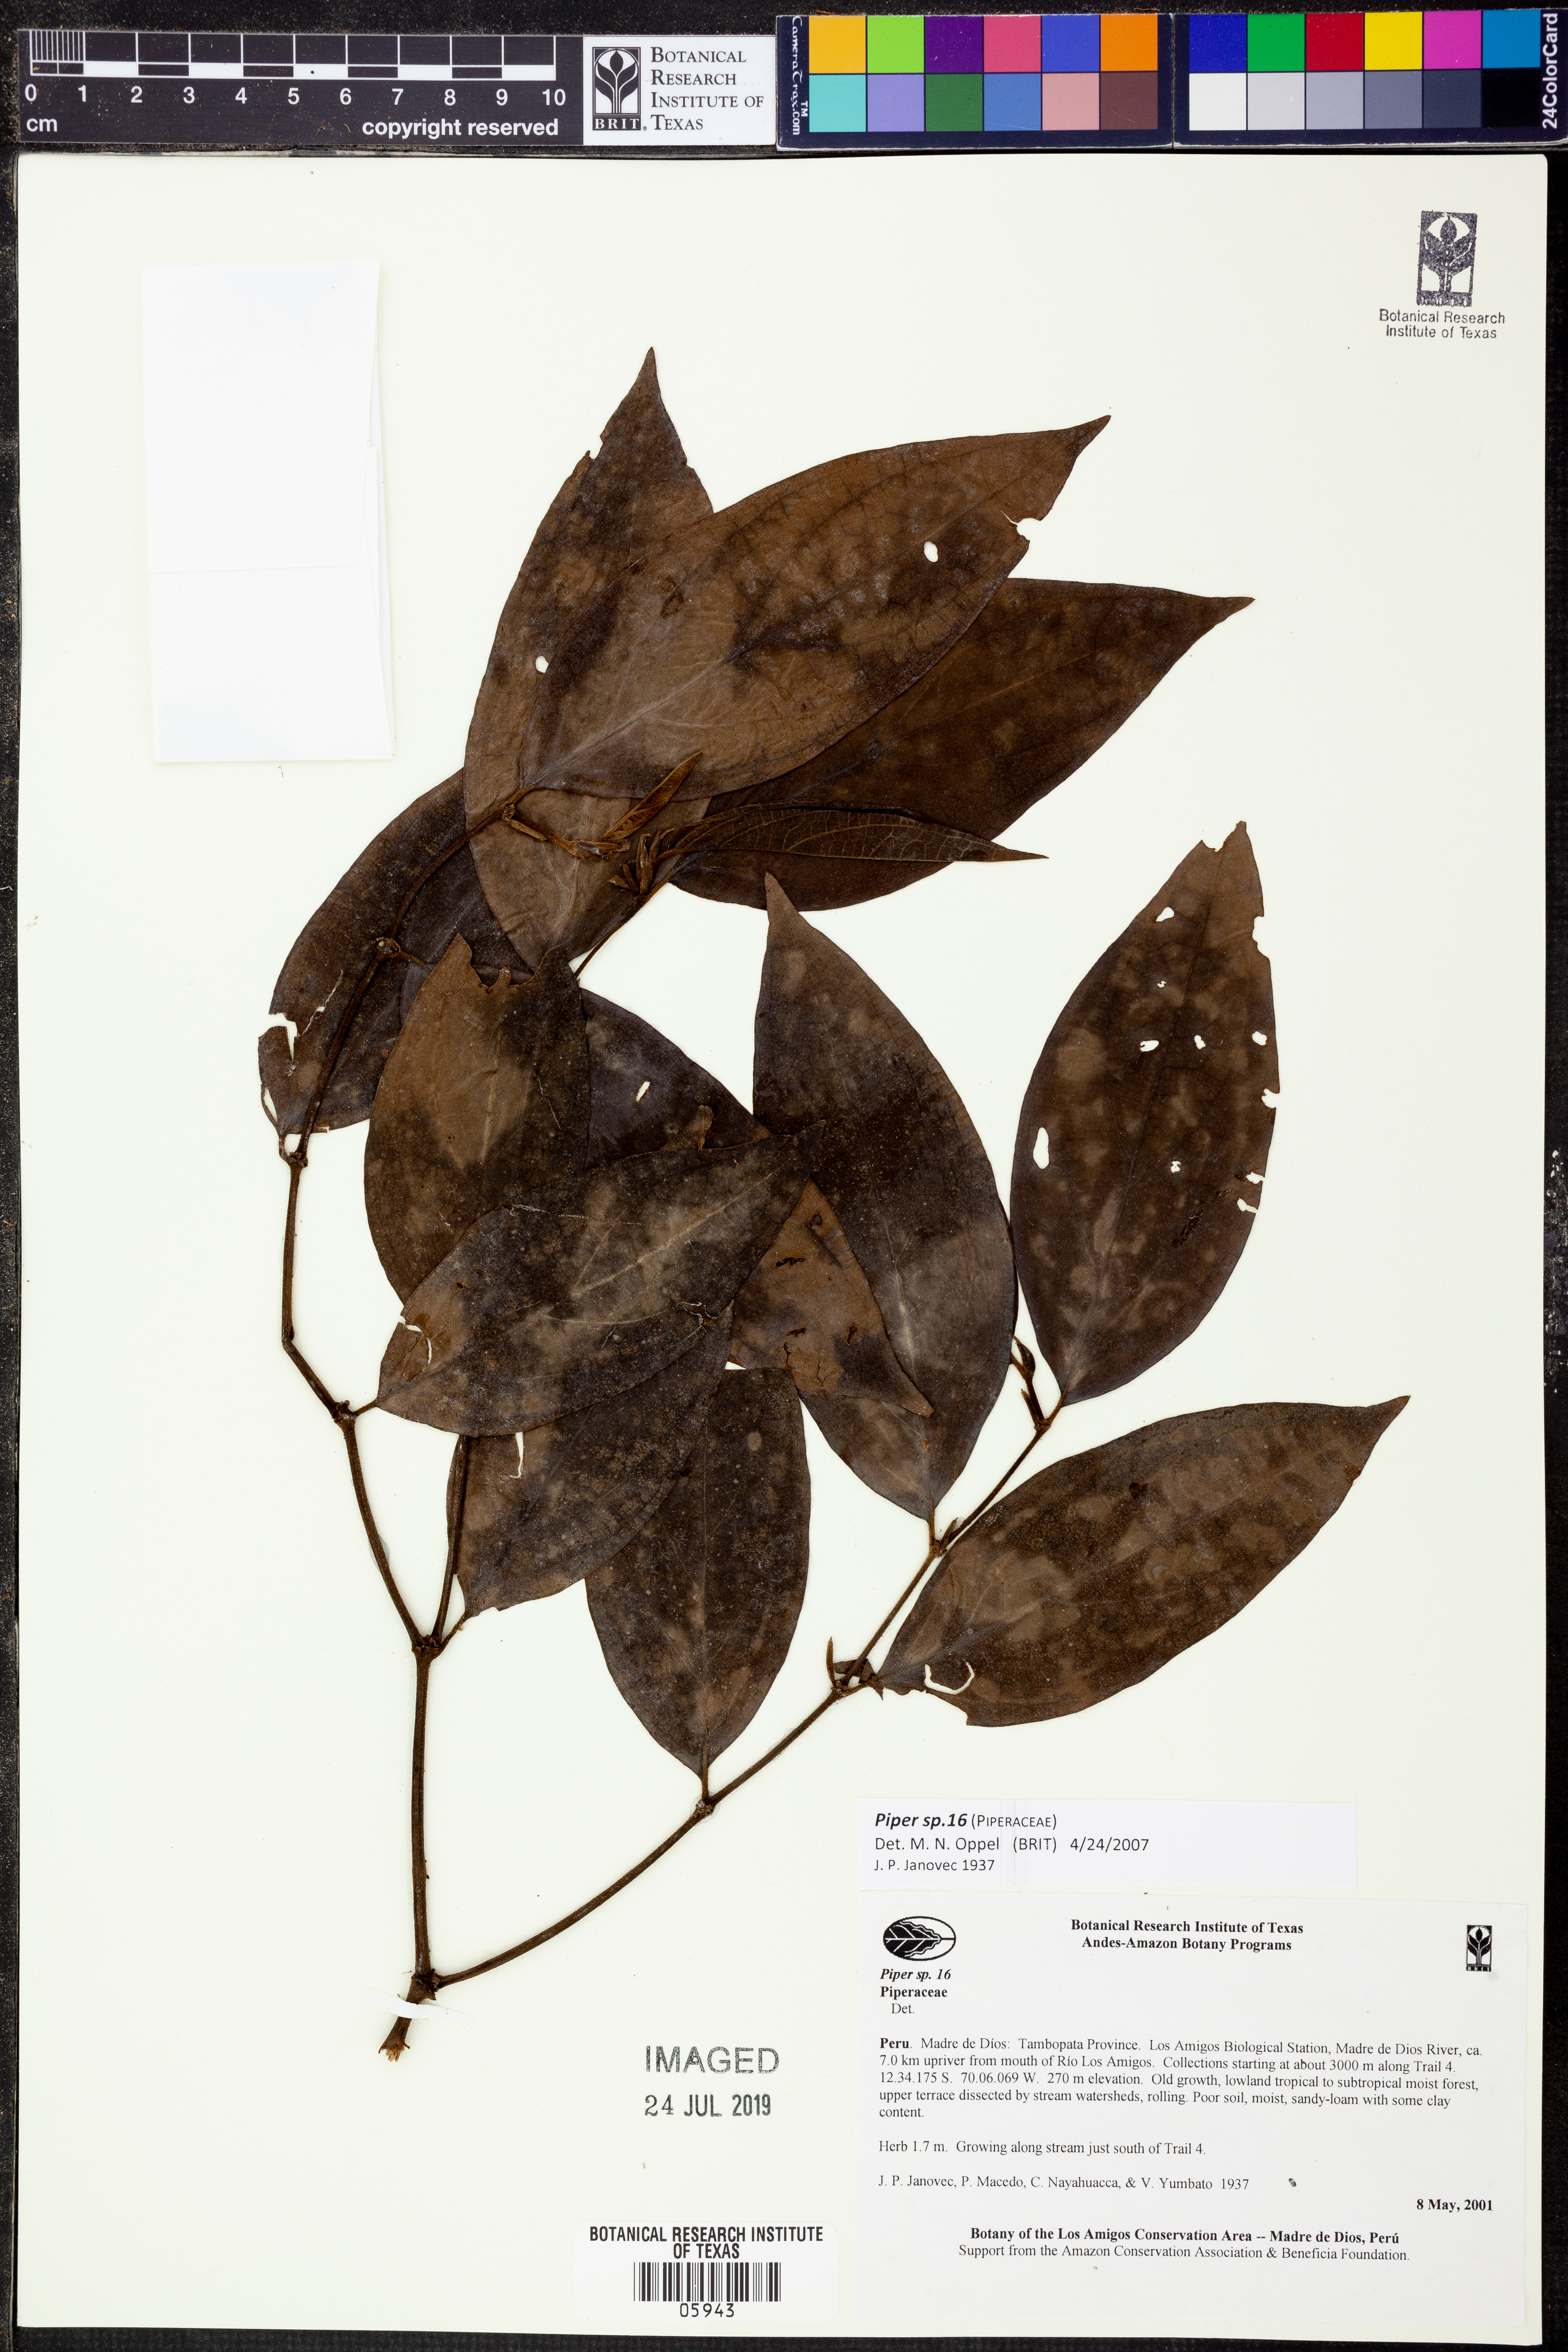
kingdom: Plantae
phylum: Tracheophyta
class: Magnoliopsida
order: Piperales
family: Piperaceae
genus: Piper
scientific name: Piper
